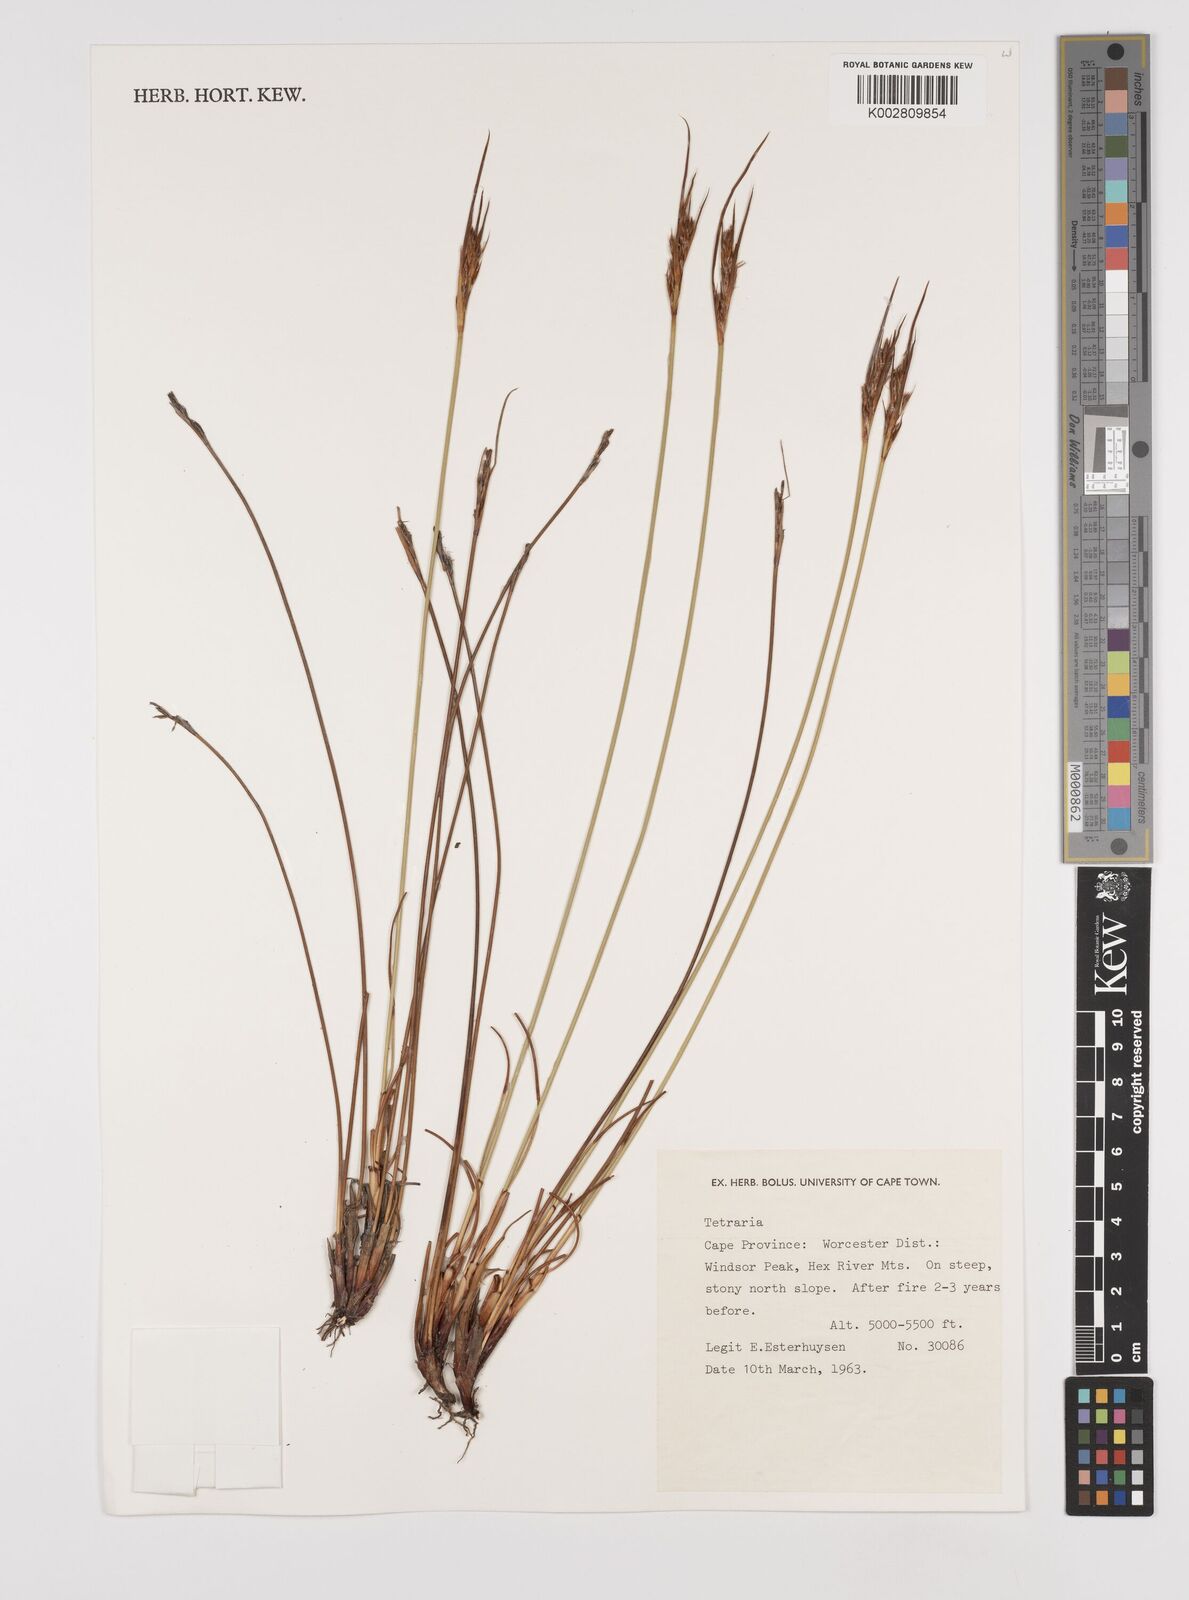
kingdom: Plantae
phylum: Tracheophyta
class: Liliopsida
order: Poales
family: Cyperaceae
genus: Schoenus
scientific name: Schoenus pseudoloreus
